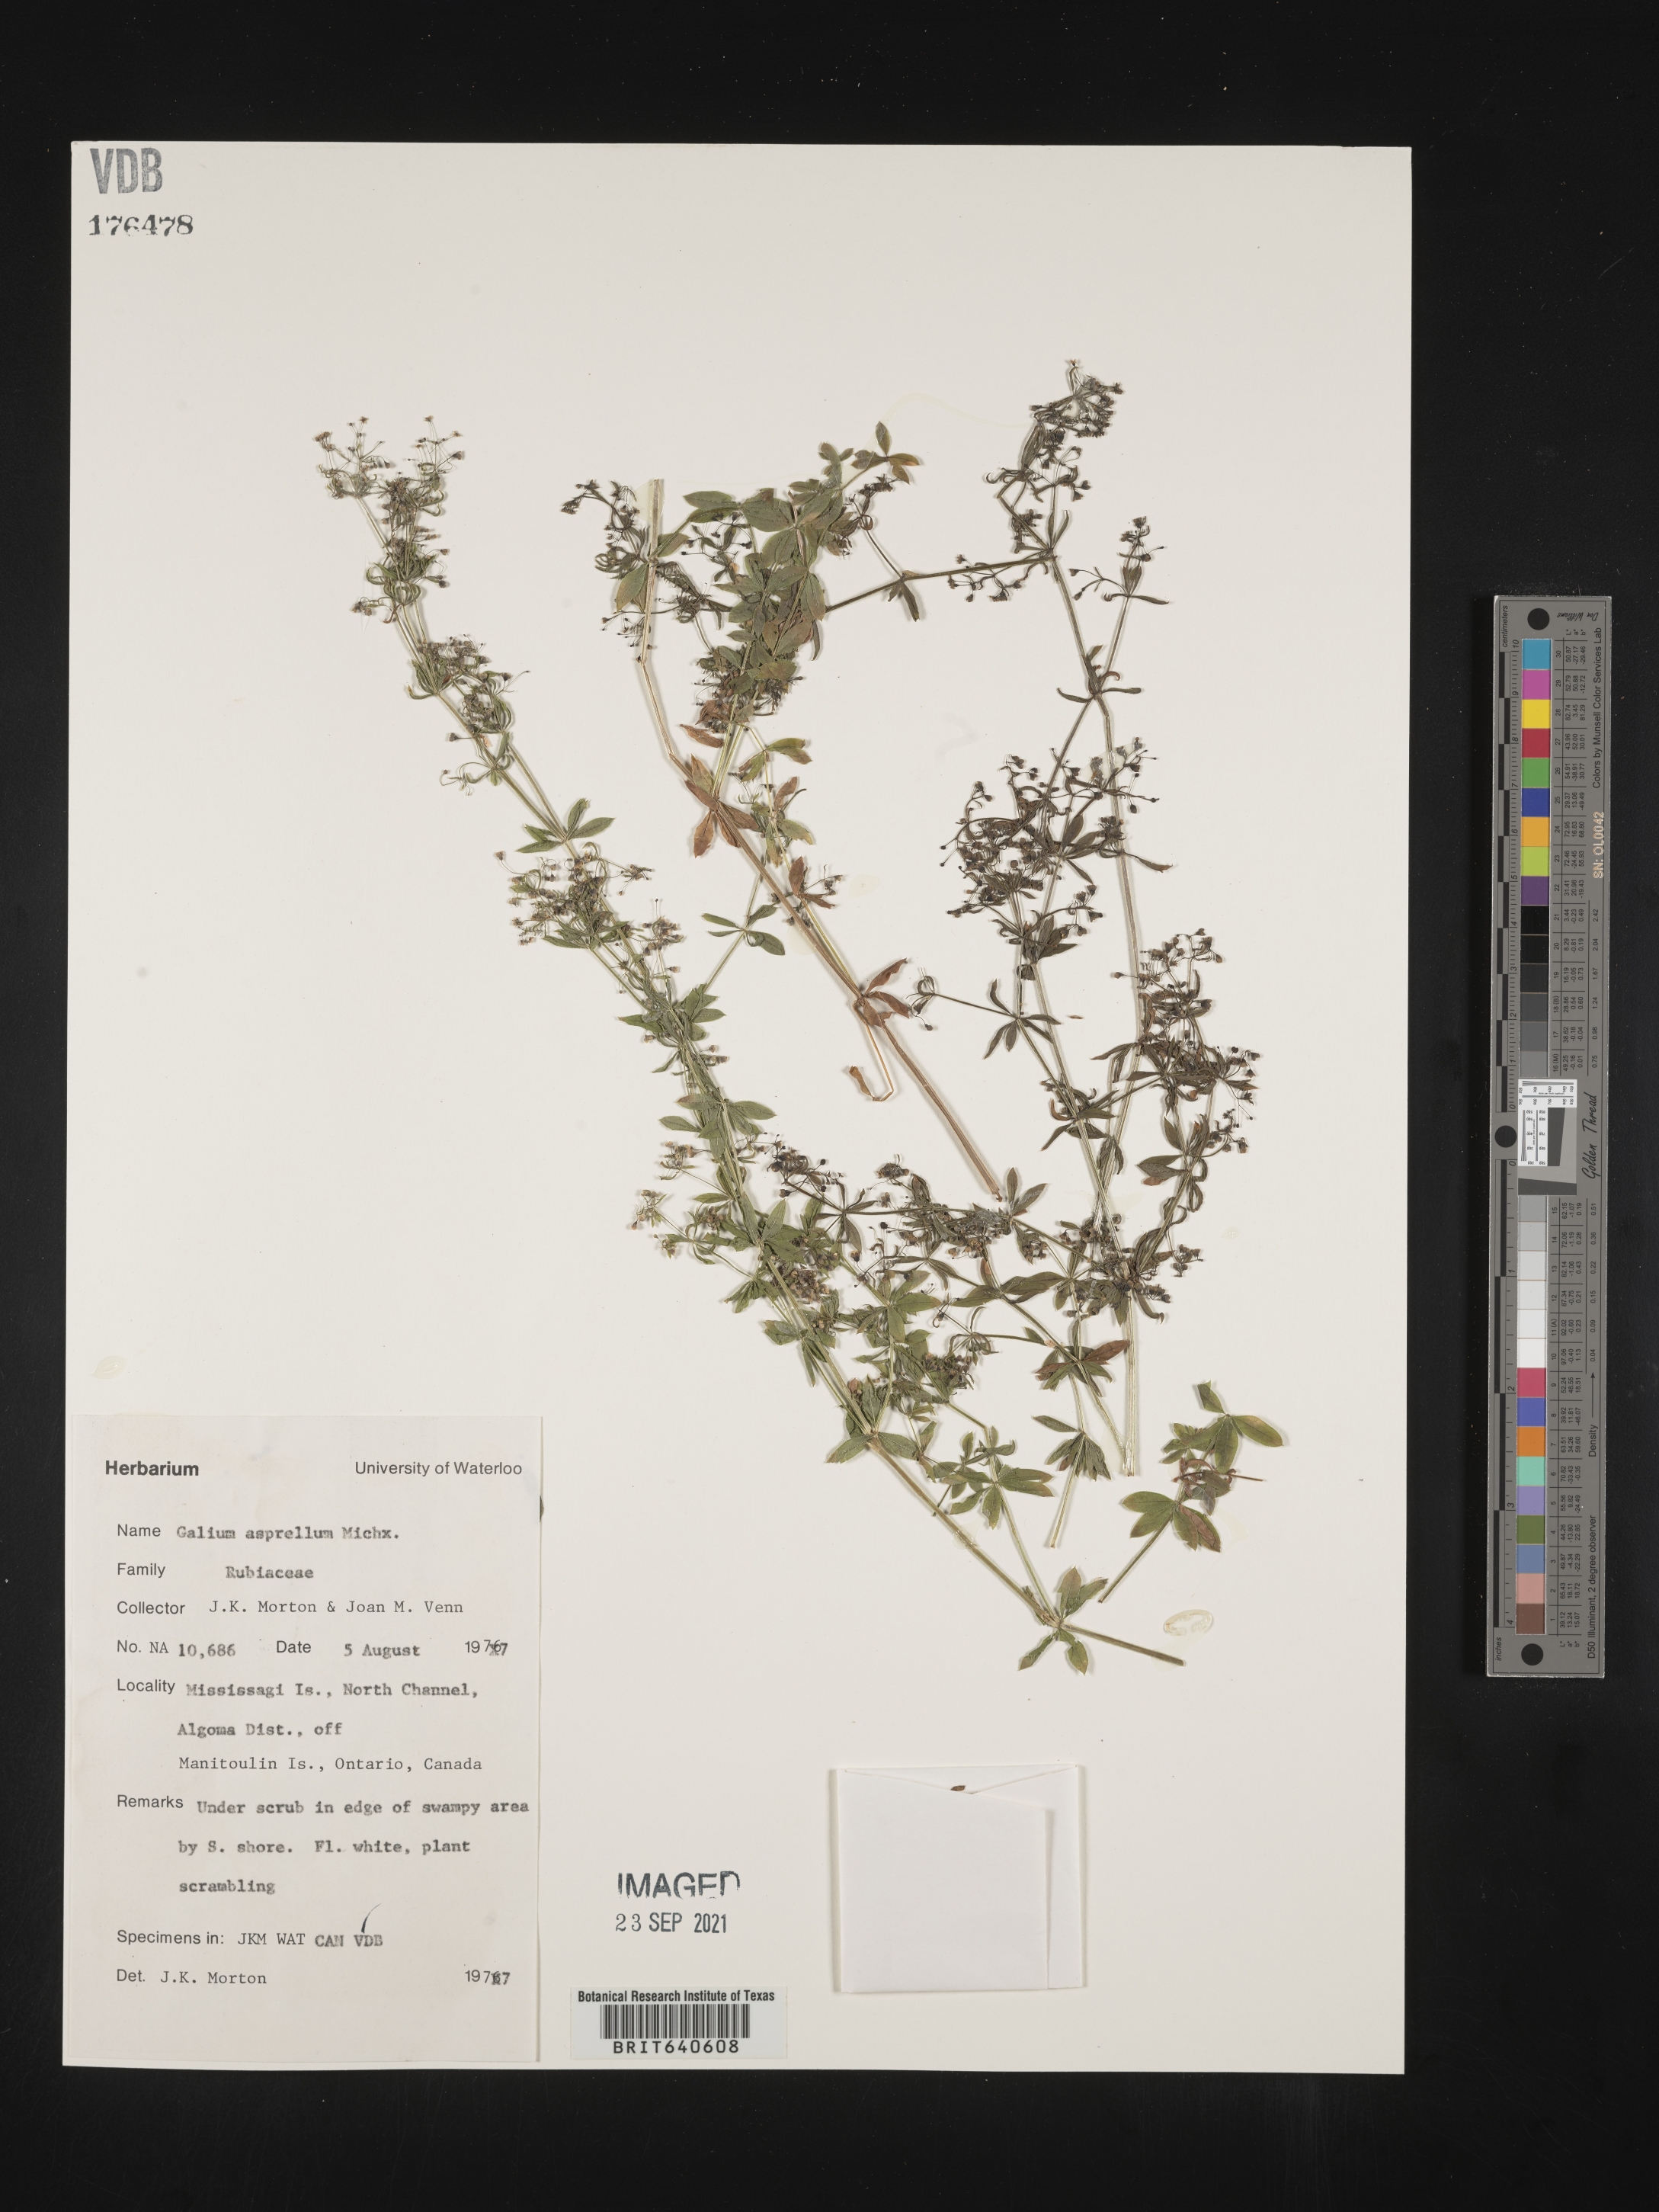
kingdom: Plantae
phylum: Tracheophyta
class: Magnoliopsida
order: Gentianales
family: Rubiaceae
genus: Galium
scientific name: Galium
